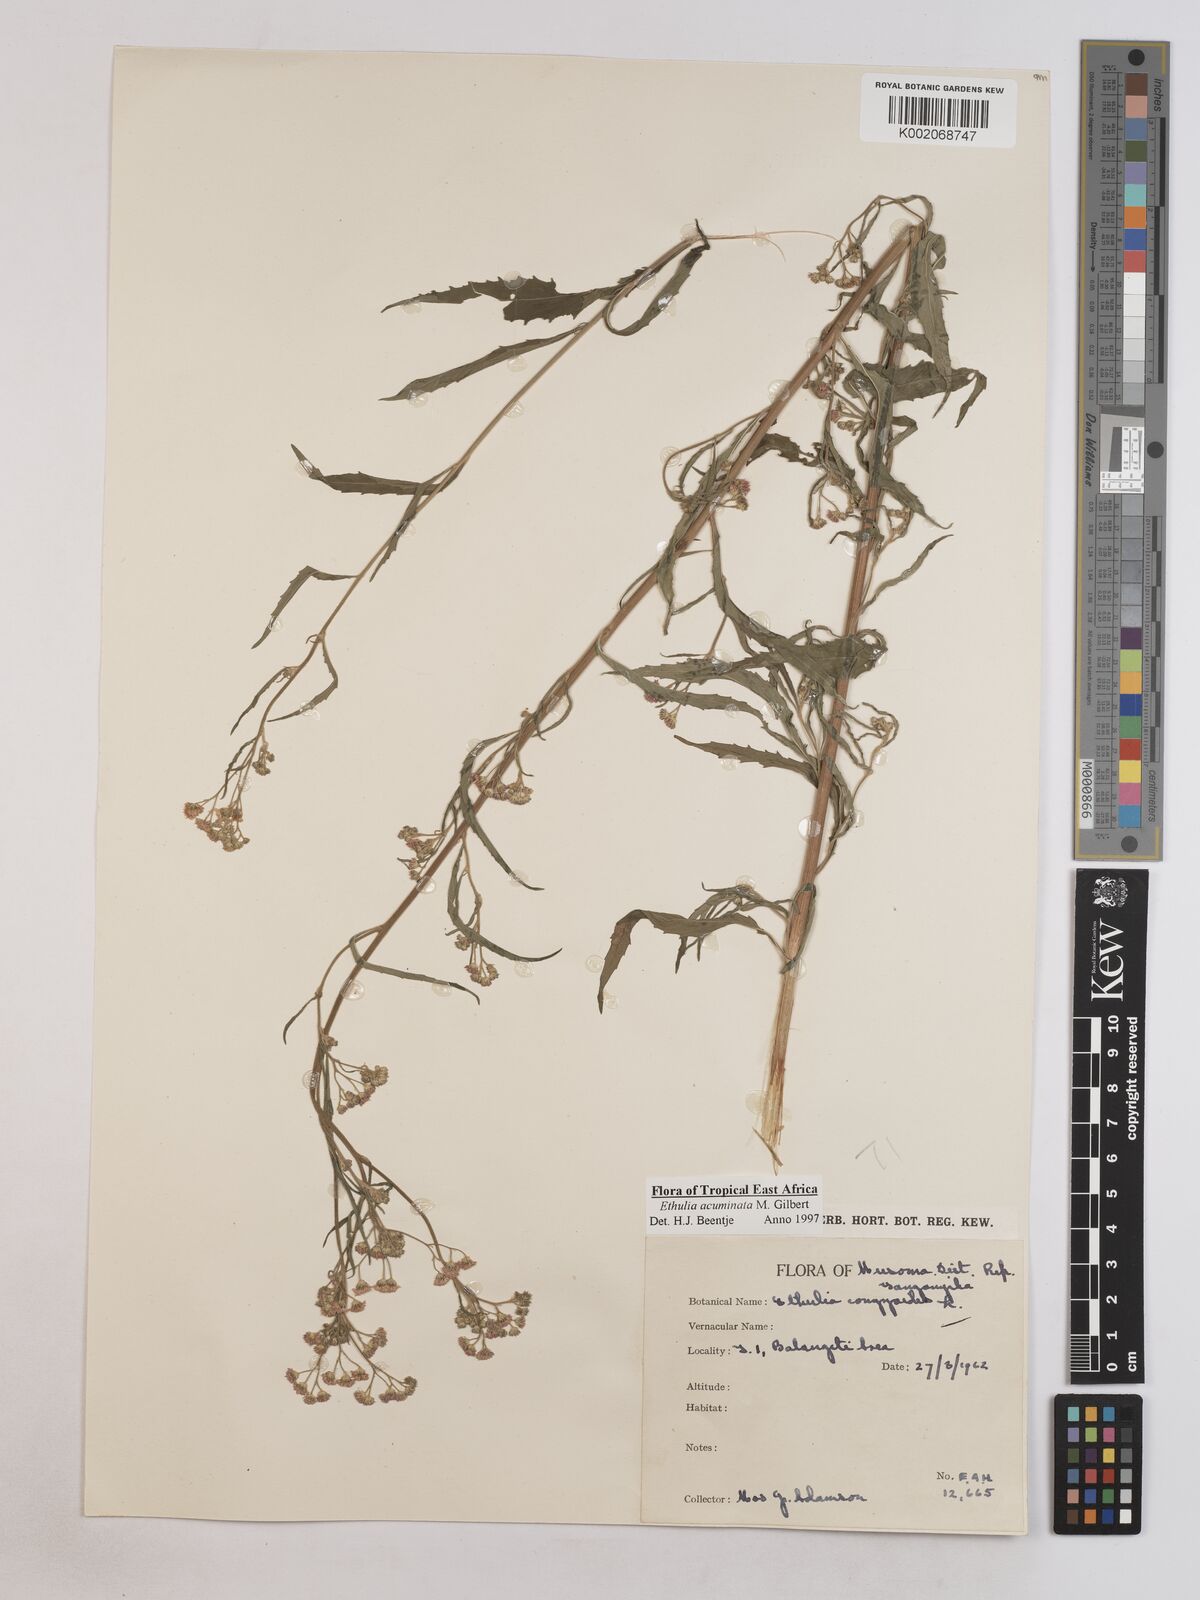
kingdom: Plantae
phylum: Tracheophyta
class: Magnoliopsida
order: Asterales
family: Asteraceae
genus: Ethulia
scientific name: Ethulia acuminata
